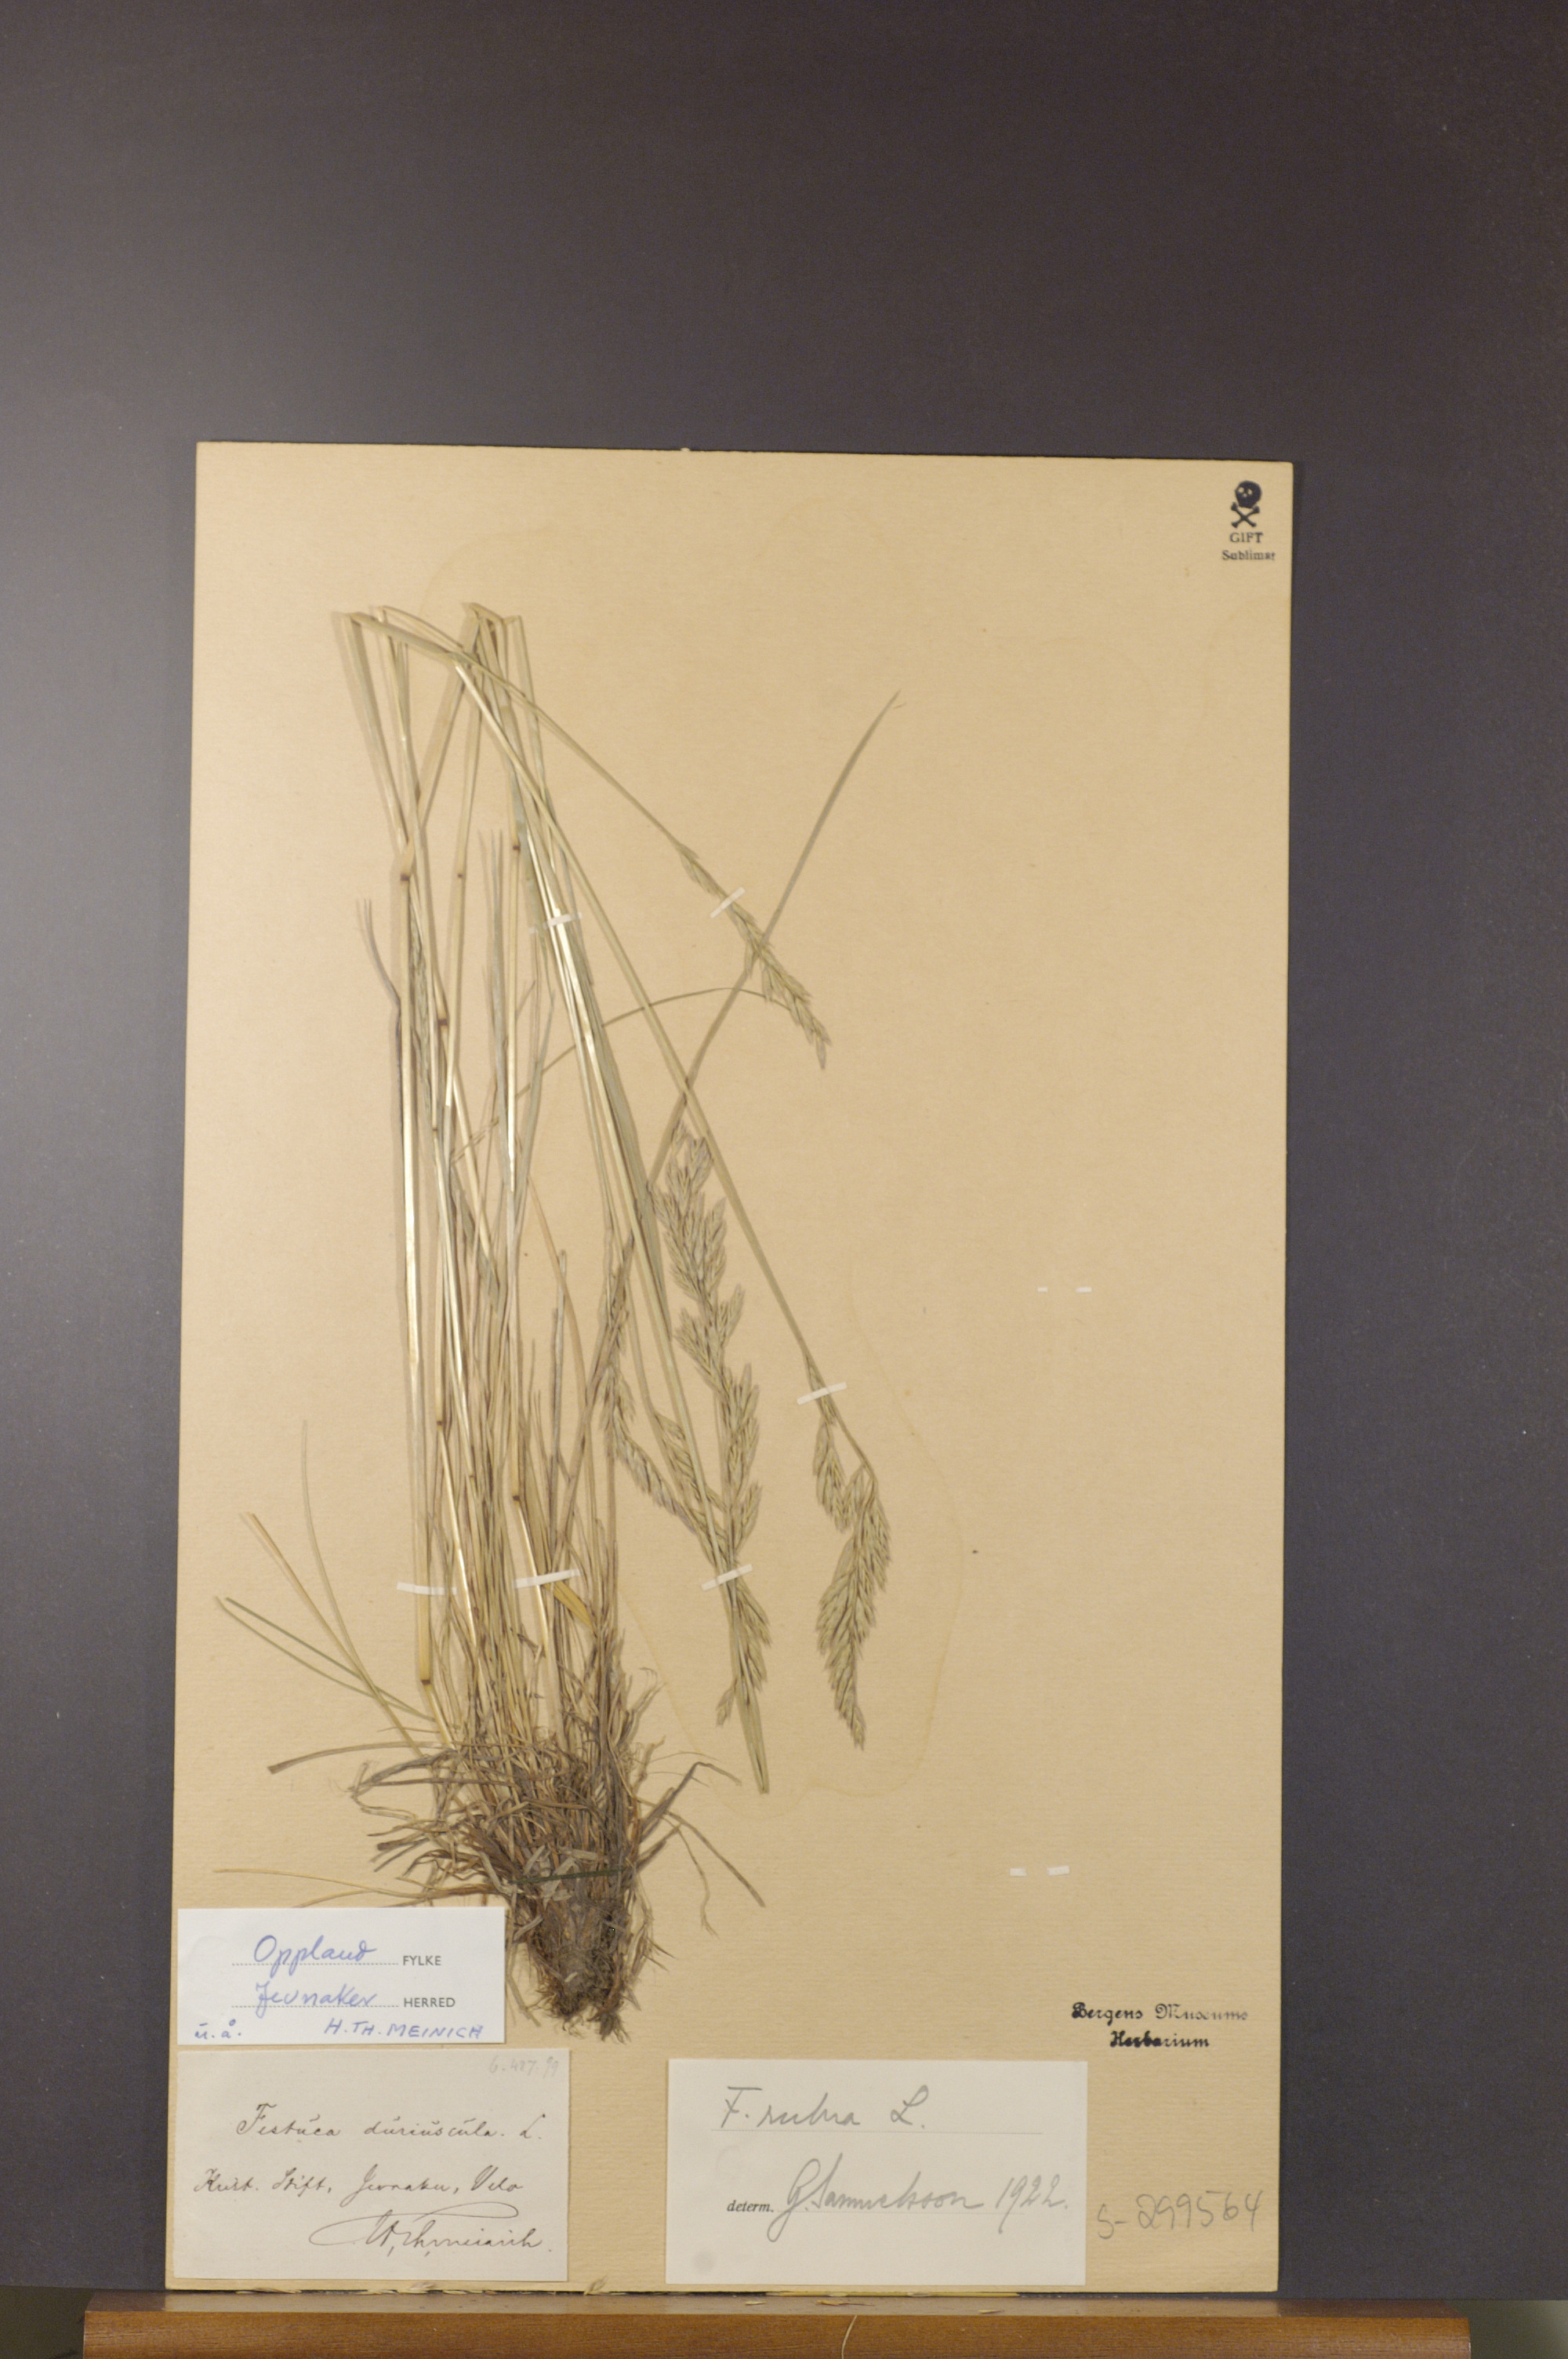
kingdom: Plantae
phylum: Tracheophyta
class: Liliopsida
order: Poales
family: Poaceae
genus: Festuca
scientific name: Festuca rubra
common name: Red fescue
